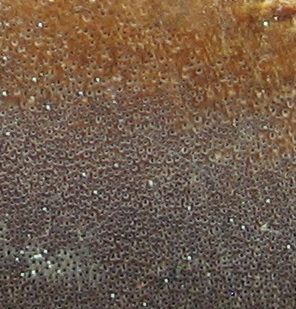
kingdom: Fungi
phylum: Basidiomycota
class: Agaricomycetes
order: Hymenochaetales
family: Hymenochaetaceae
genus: Fuscoporia
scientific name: Fuscoporia ferrea
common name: skorpe-ildporesvamp
